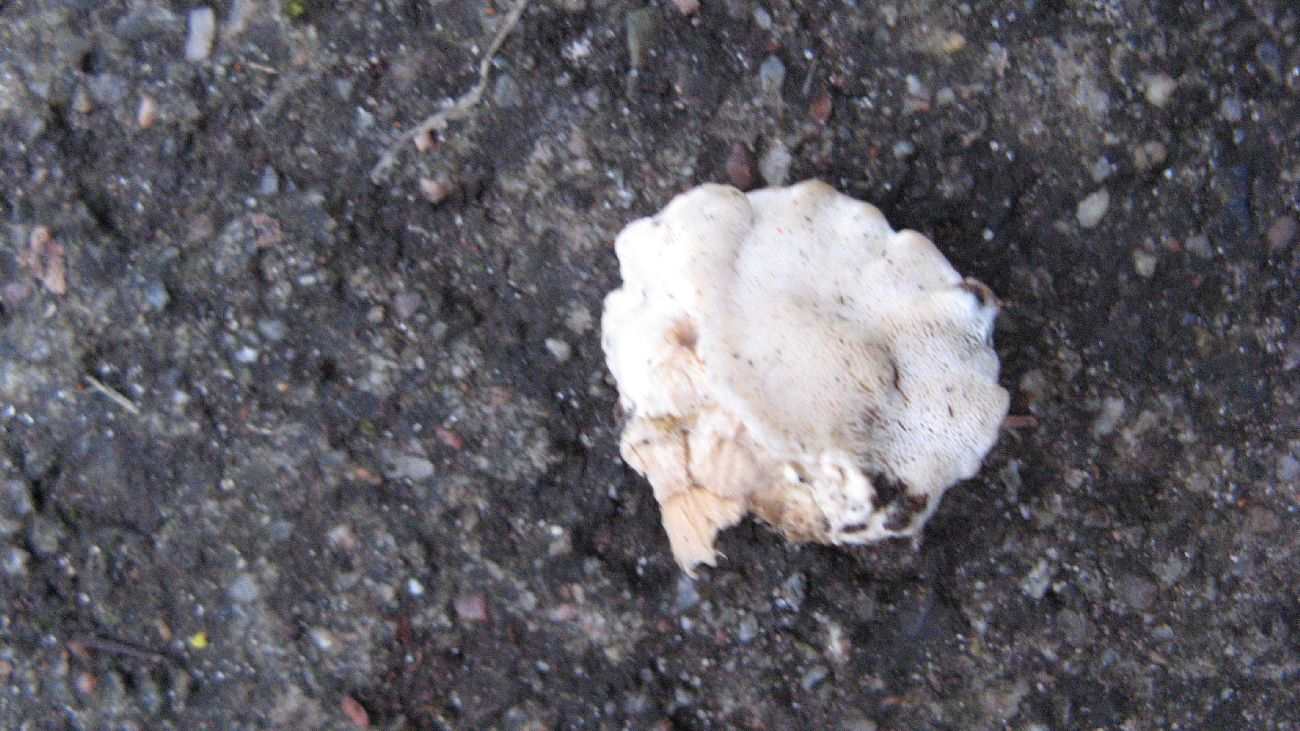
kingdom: Fungi
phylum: Basidiomycota
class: Agaricomycetes
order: Polyporales
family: Incrustoporiaceae
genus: Tyromyces
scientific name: Tyromyces lacteus
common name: mælkehvid kødporesvamp
